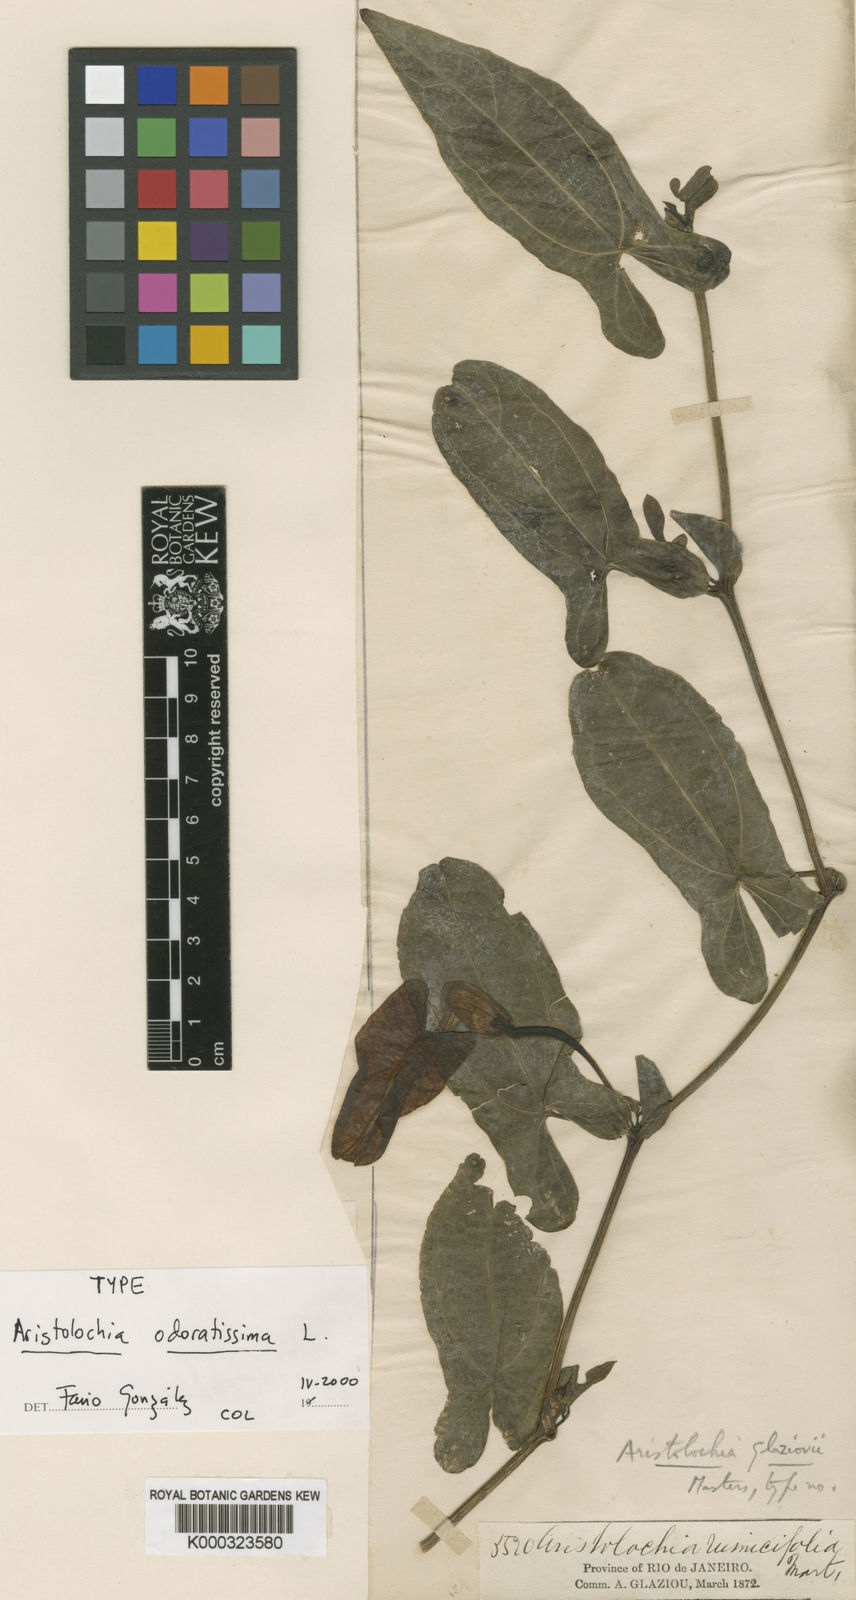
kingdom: Plantae
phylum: Tracheophyta
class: Magnoliopsida
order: Piperales
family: Aristolochiaceae
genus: Aristolochia
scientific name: Aristolochia odoratissima
